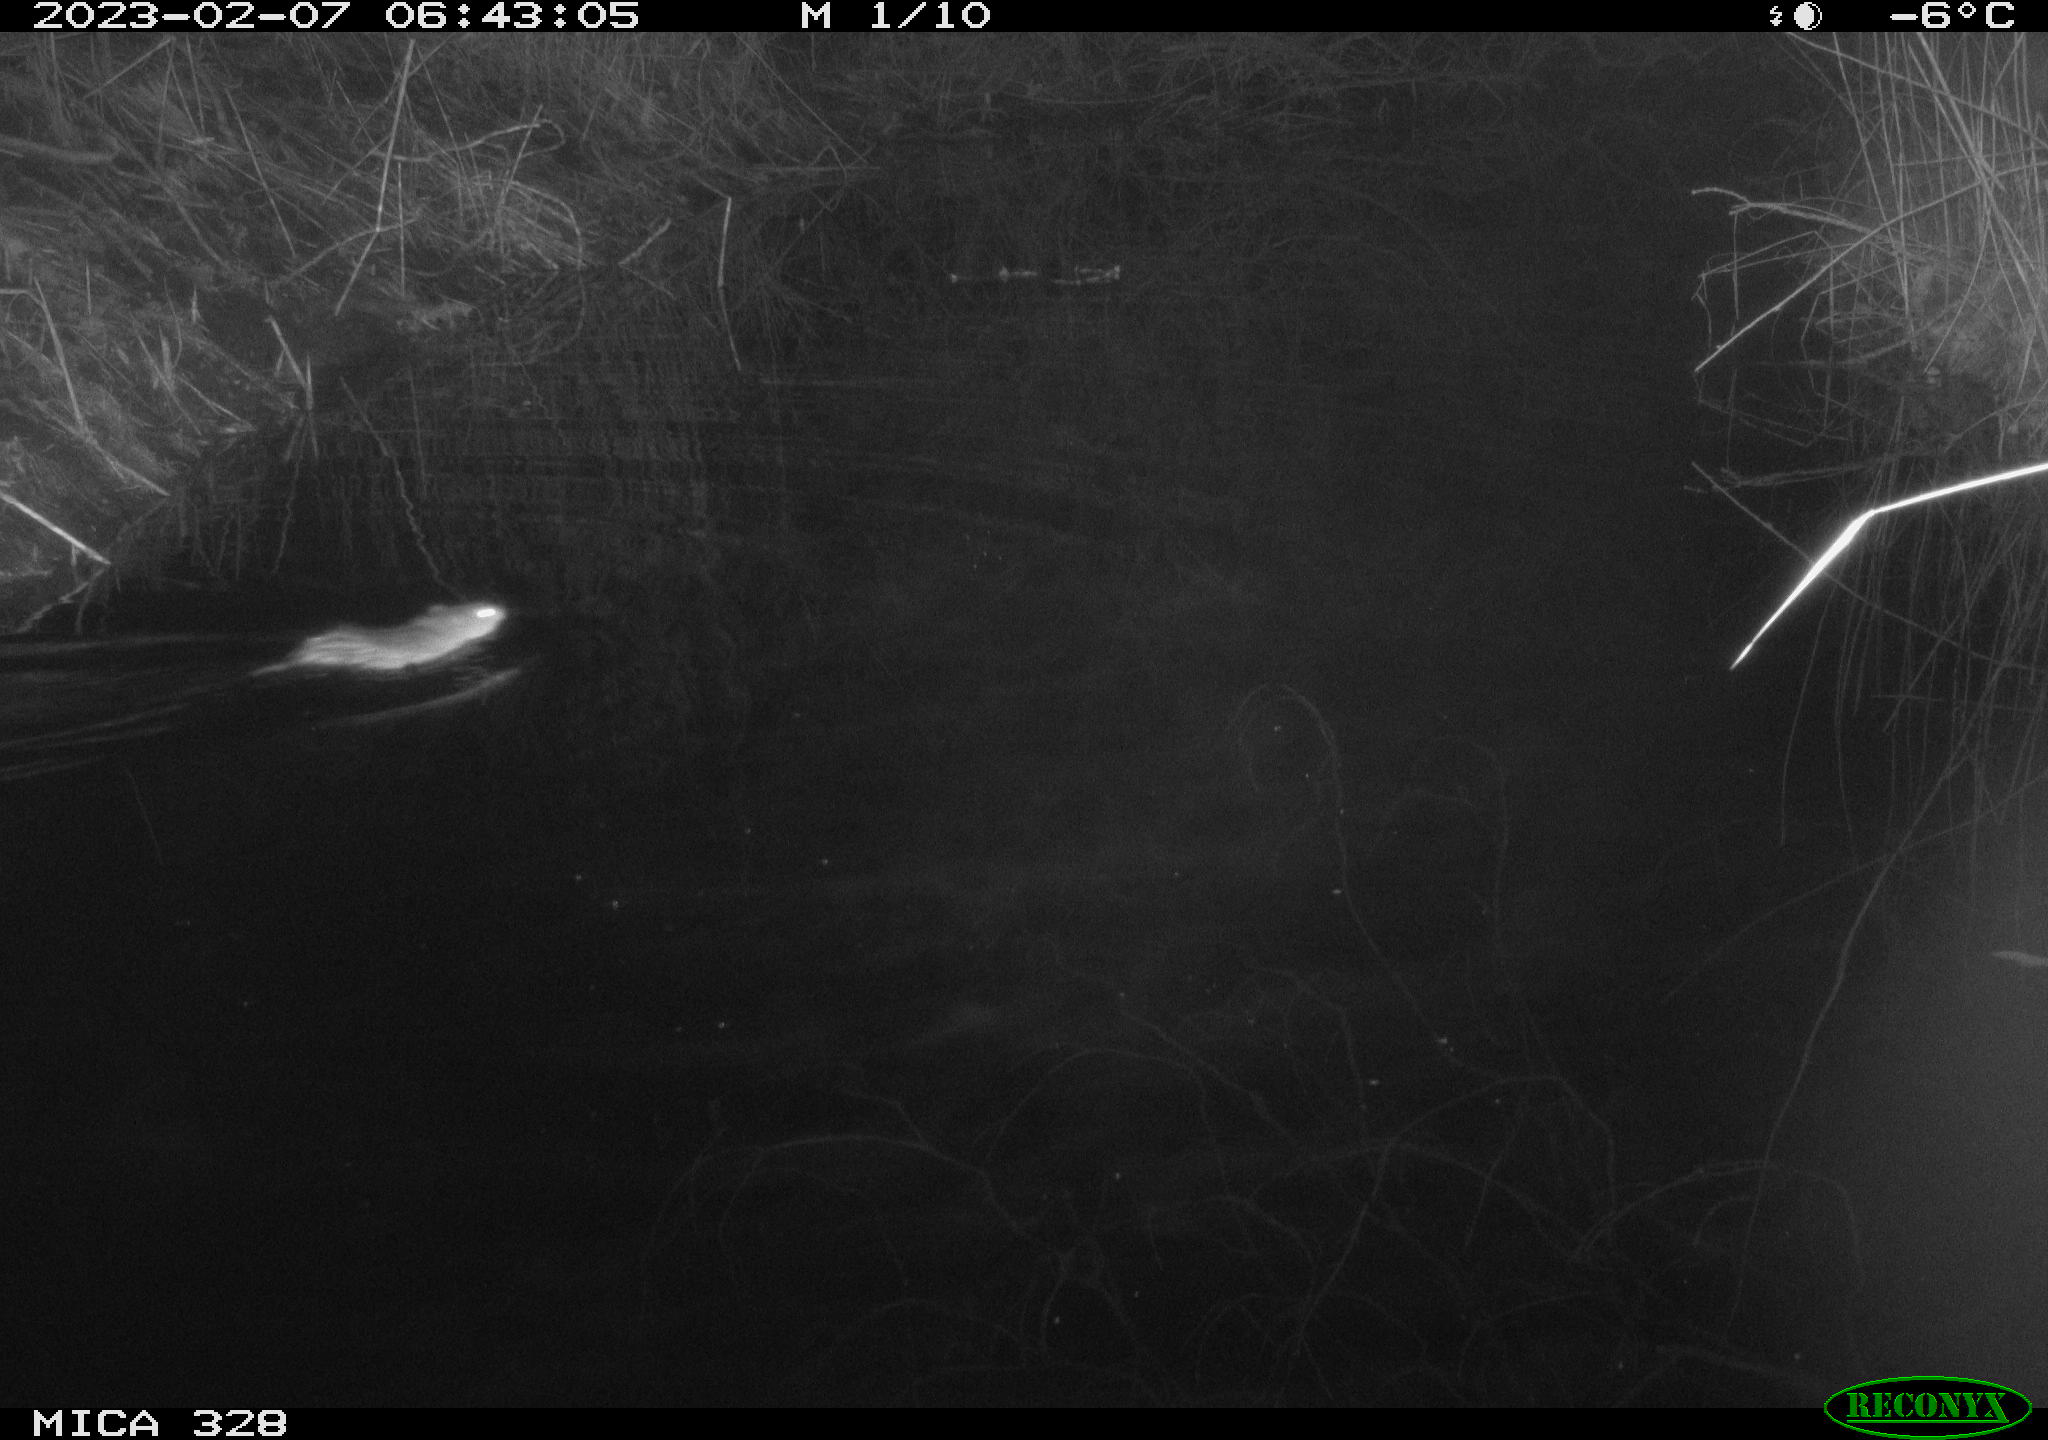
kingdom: Animalia
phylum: Chordata
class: Mammalia
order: Rodentia
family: Cricetidae
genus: Ondatra
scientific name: Ondatra zibethicus
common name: Muskrat
